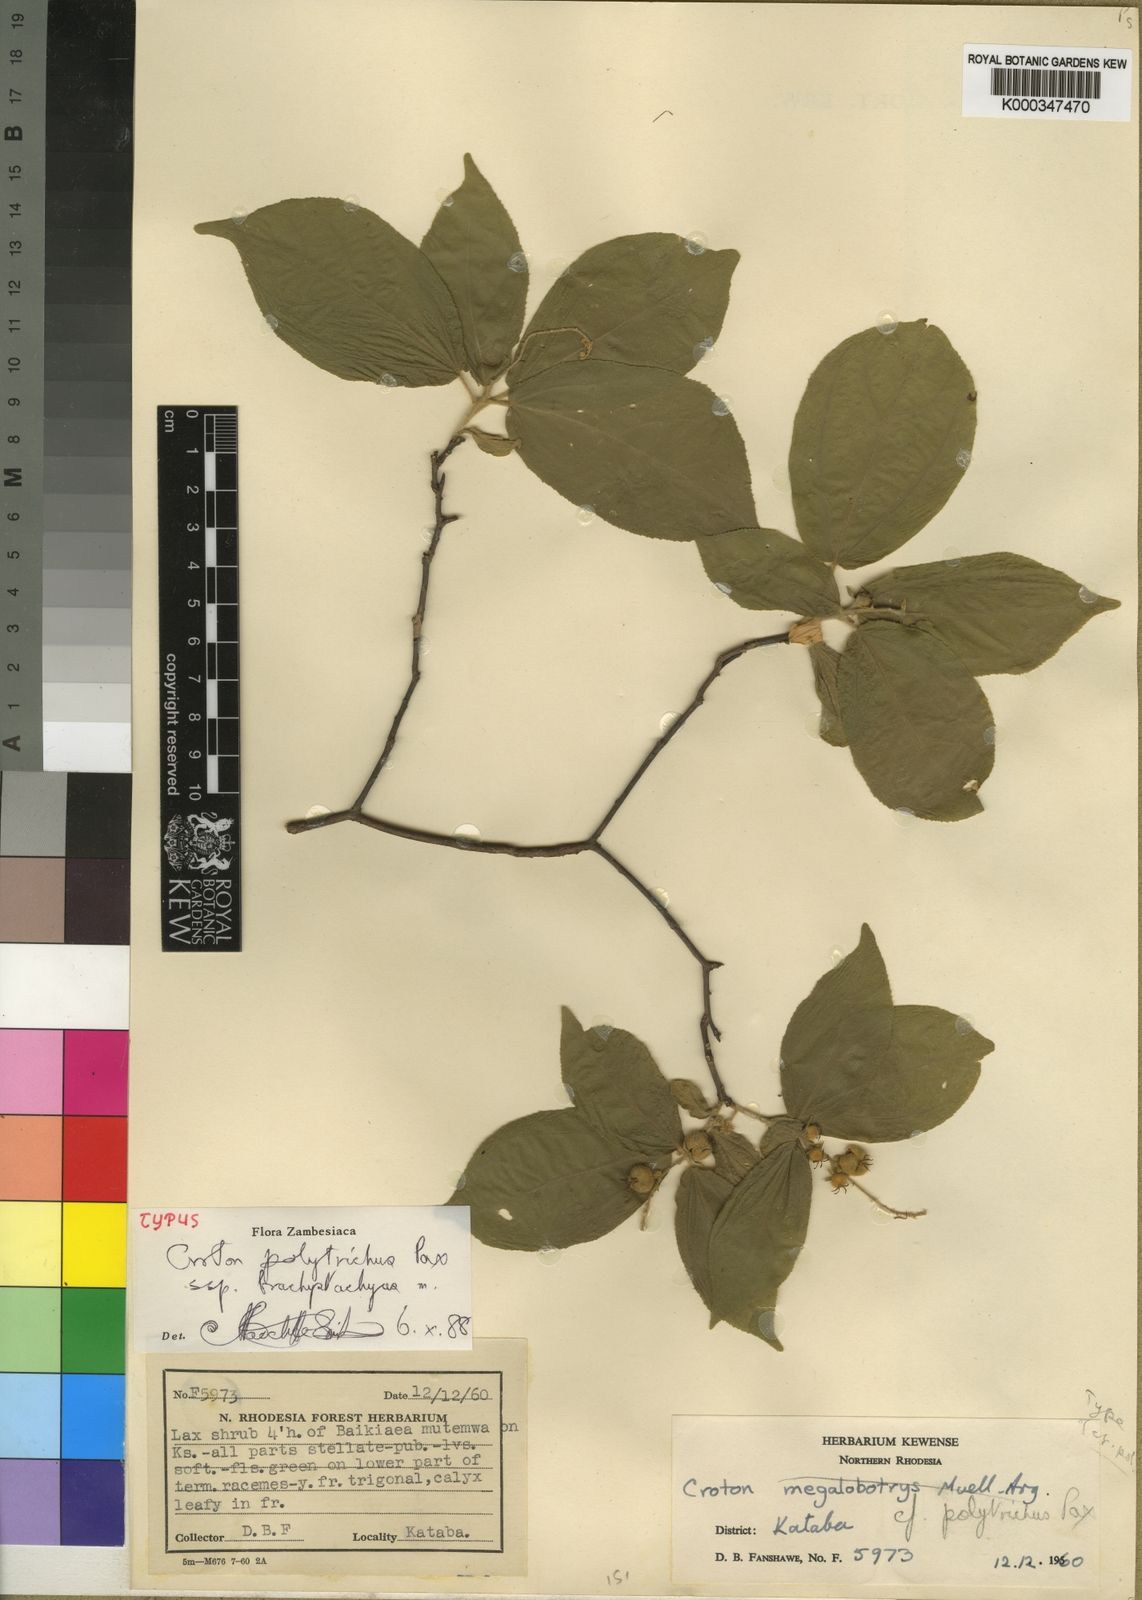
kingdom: Plantae
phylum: Tracheophyta
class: Magnoliopsida
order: Malpighiales
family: Euphorbiaceae
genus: Croton
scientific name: Croton polytrichus
